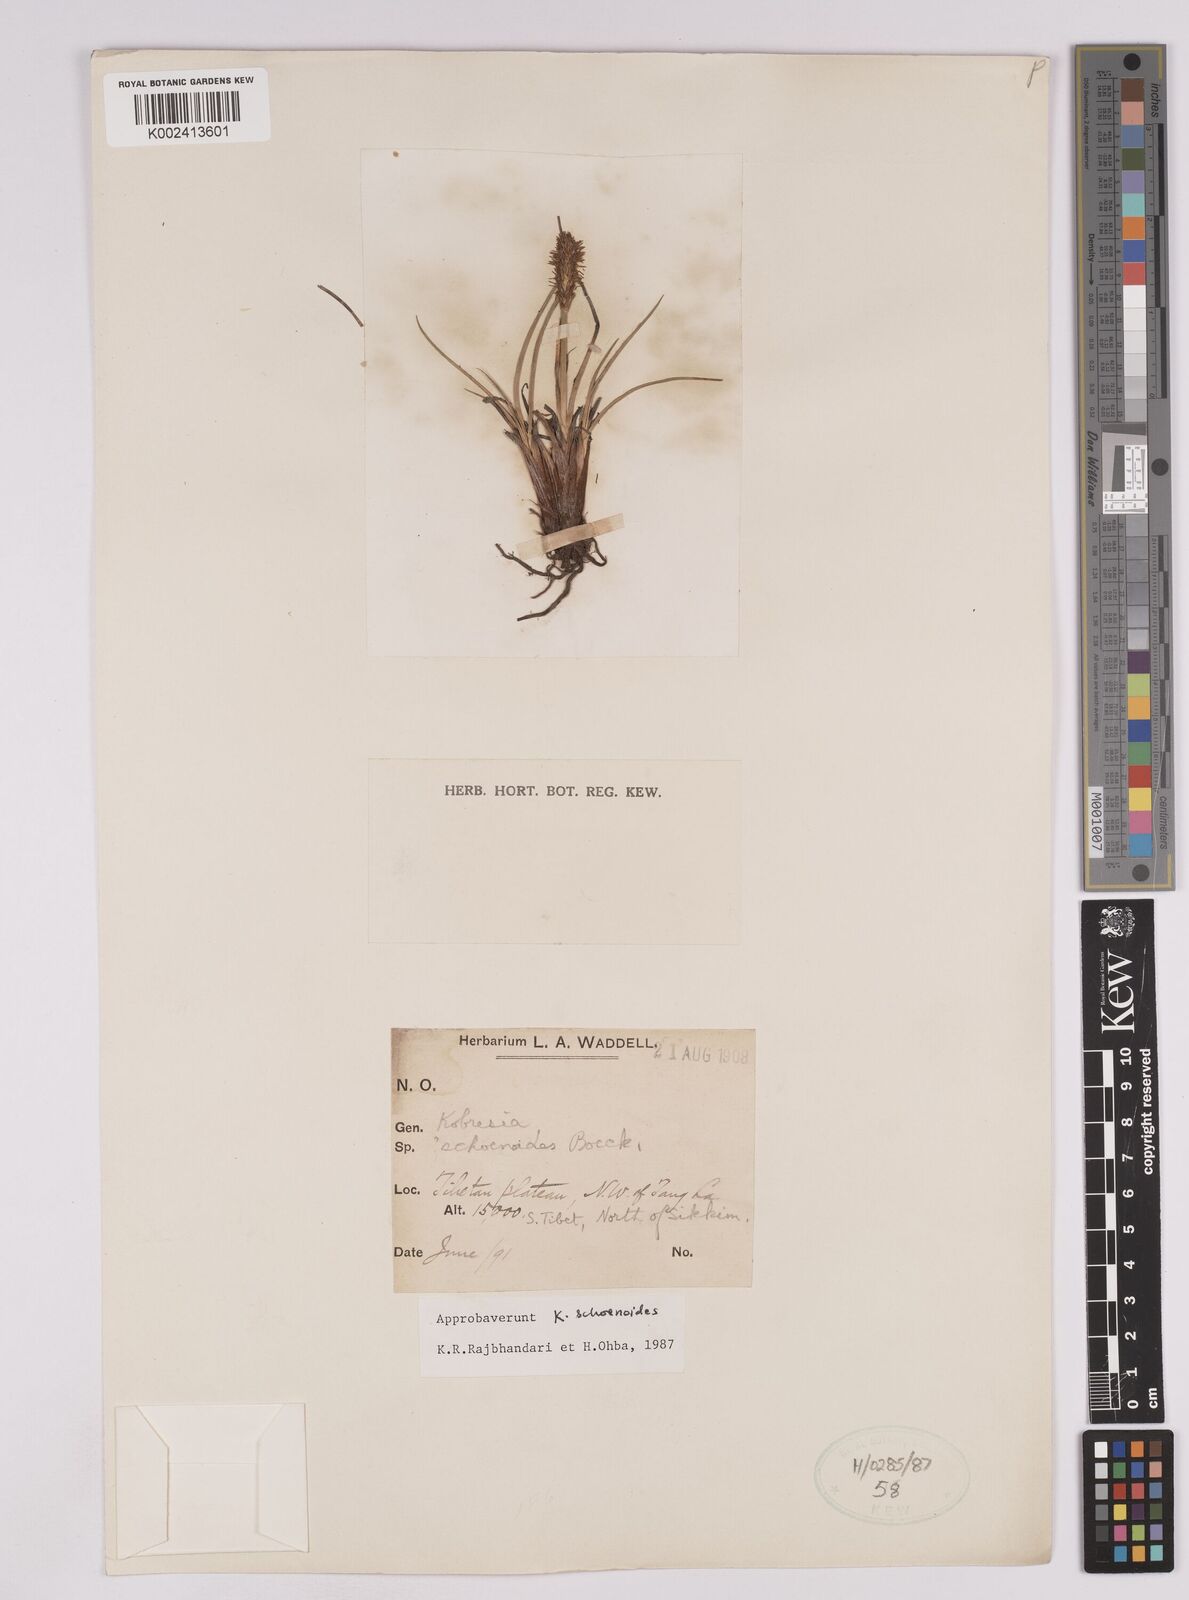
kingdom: Plantae
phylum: Tracheophyta
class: Liliopsida
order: Poales
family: Cyperaceae
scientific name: Cyperaceae
